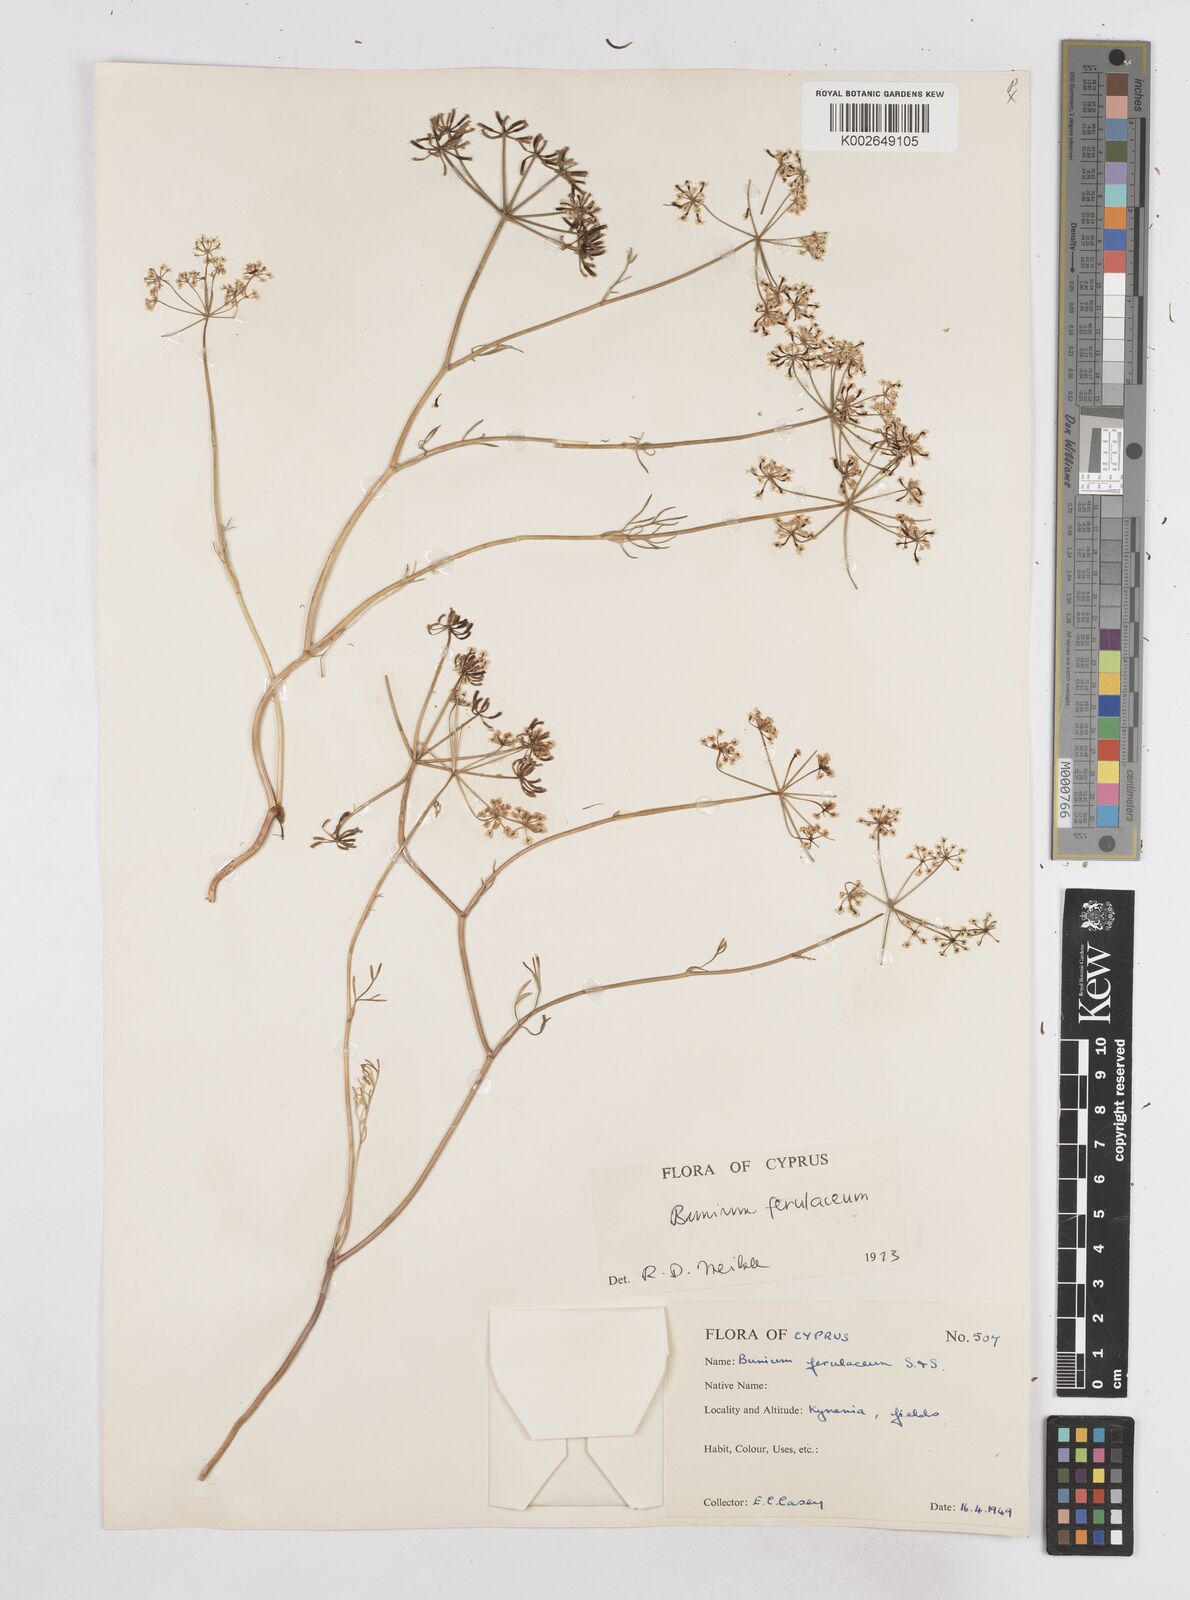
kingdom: Plantae
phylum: Tracheophyta
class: Magnoliopsida
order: Apiales
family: Apiaceae
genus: Bunium
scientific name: Bunium ferulaceum
